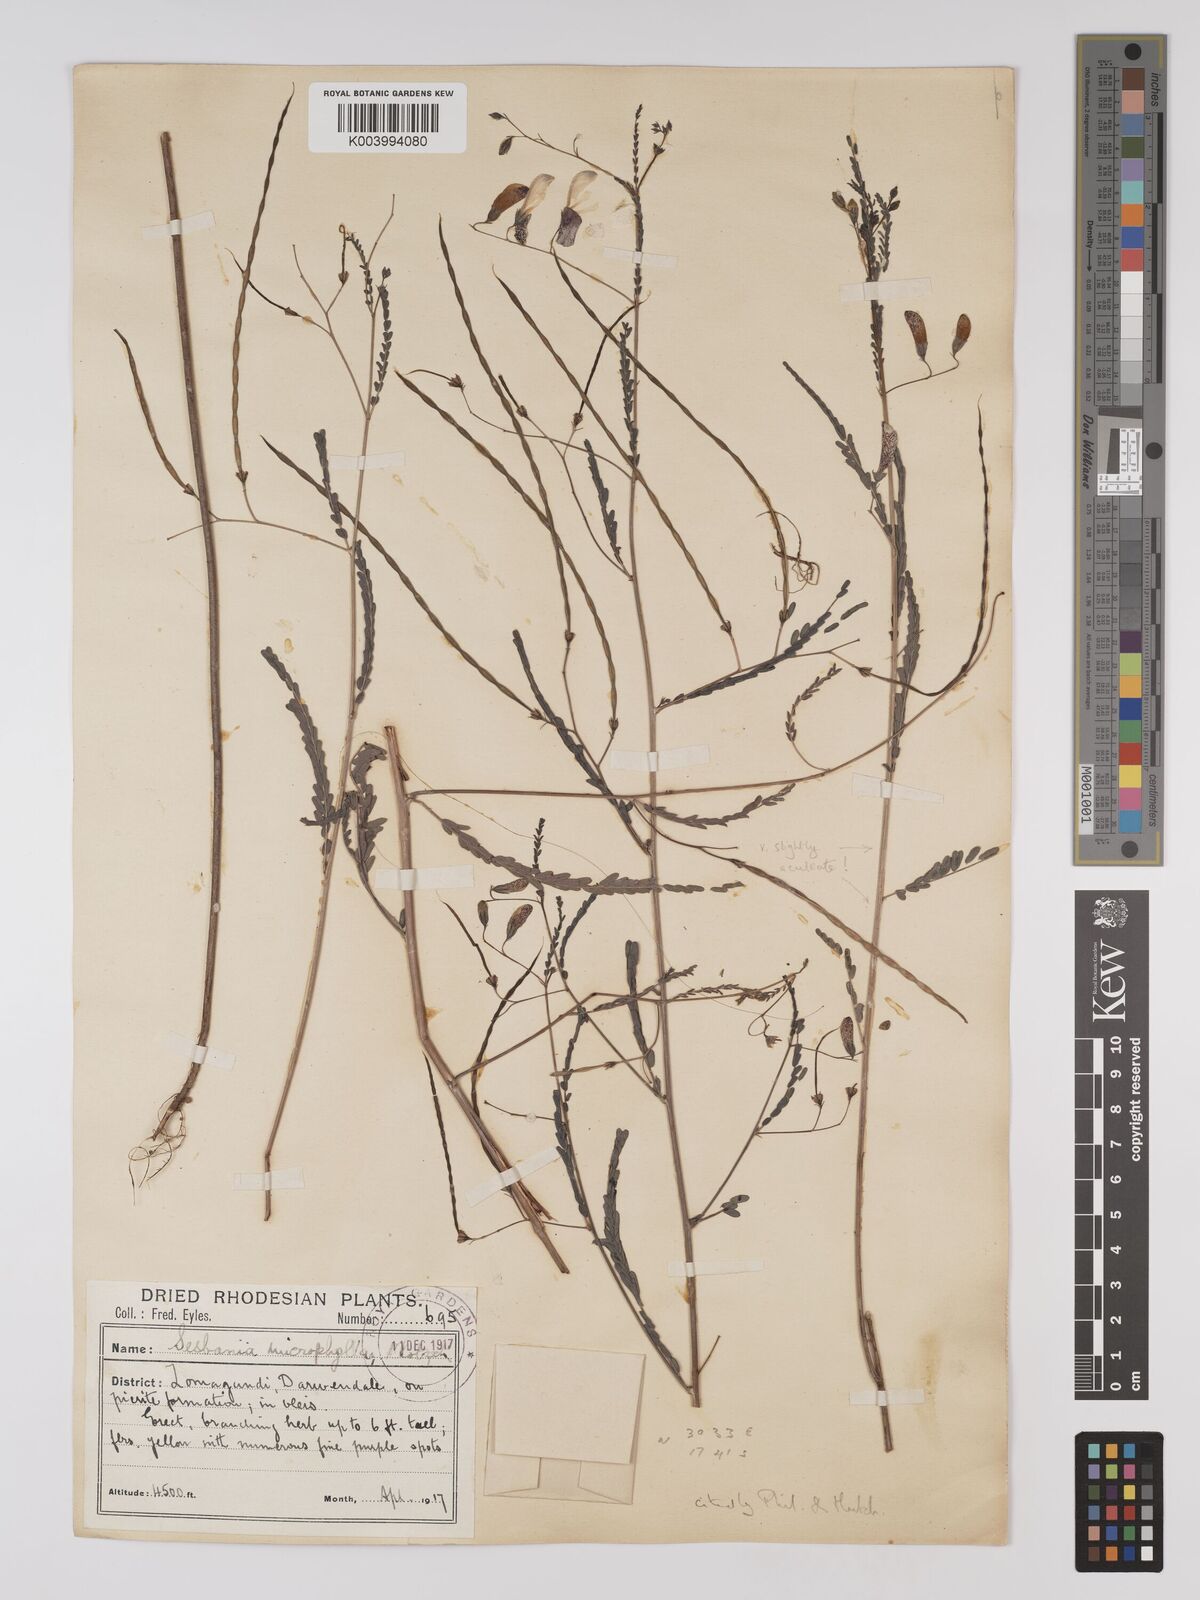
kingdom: Plantae
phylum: Tracheophyta
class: Magnoliopsida
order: Fabales
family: Fabaceae
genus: Sesbania
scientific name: Sesbania microphylla
